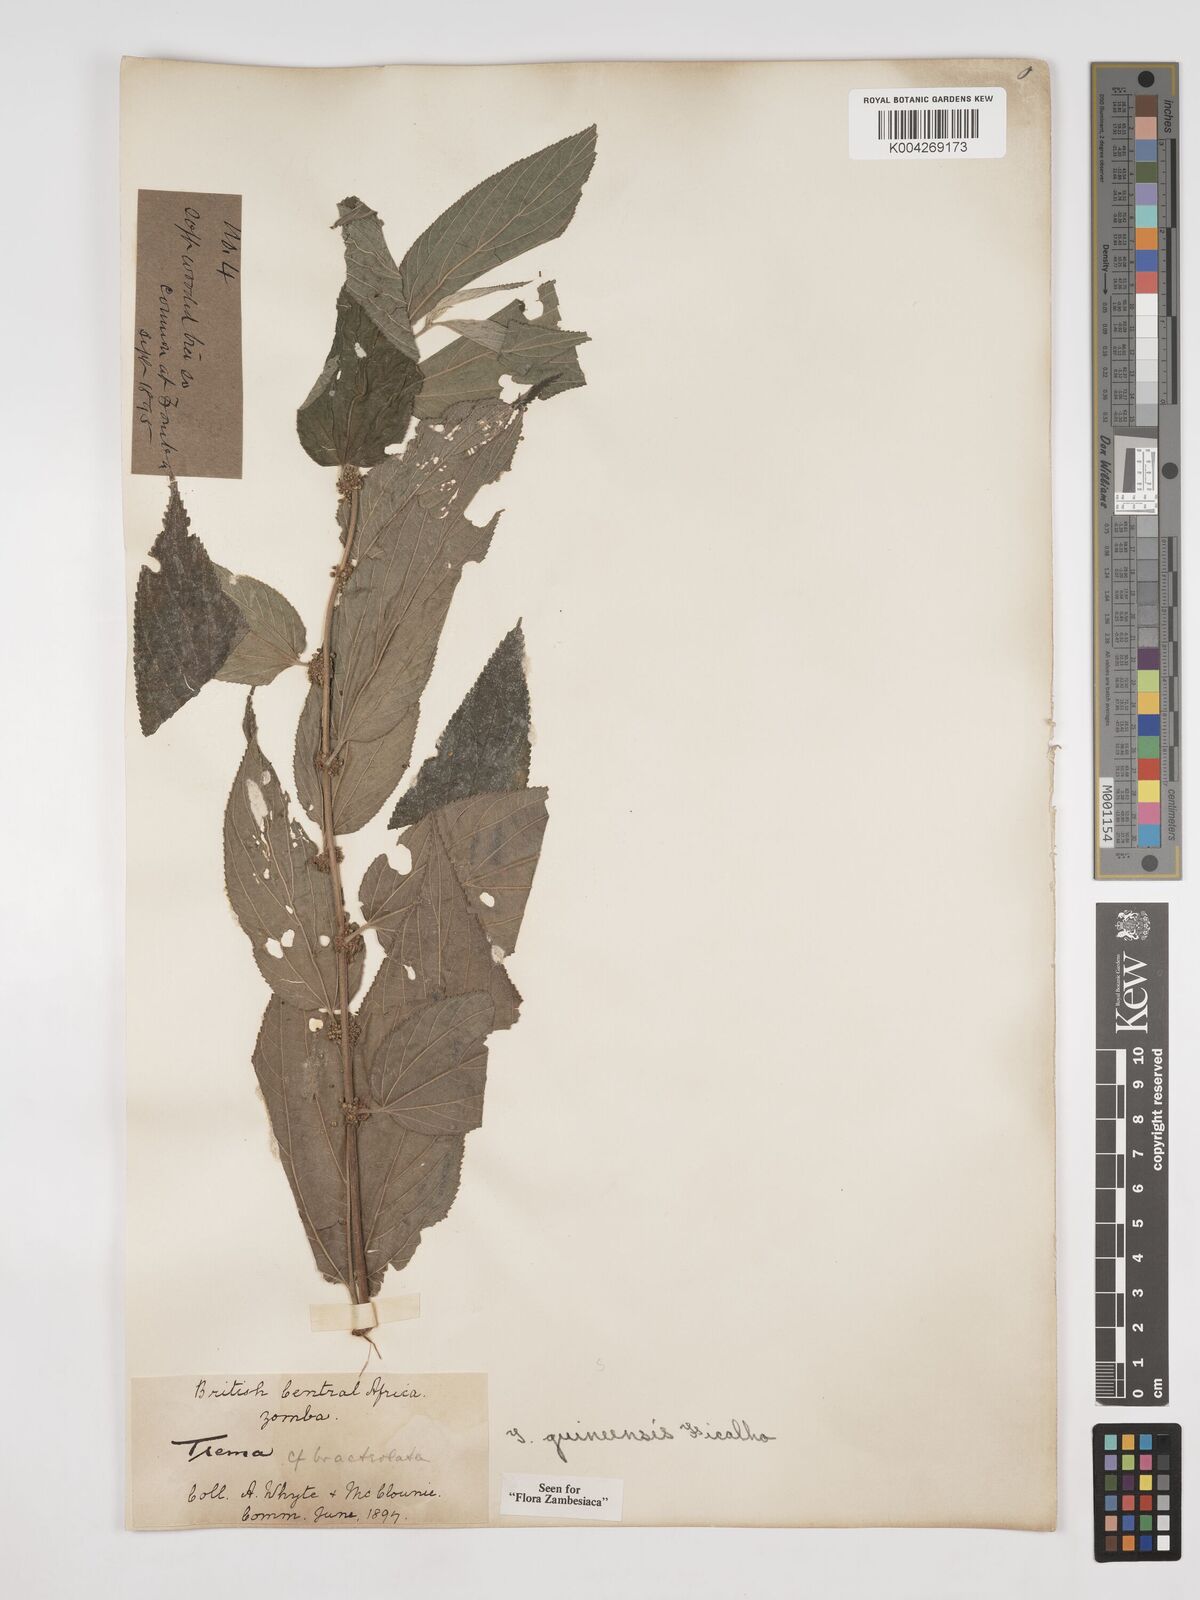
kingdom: Plantae
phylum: Tracheophyta
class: Magnoliopsida
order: Rosales
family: Cannabaceae
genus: Trema
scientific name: Trema orientale
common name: Indian charcoal tree
